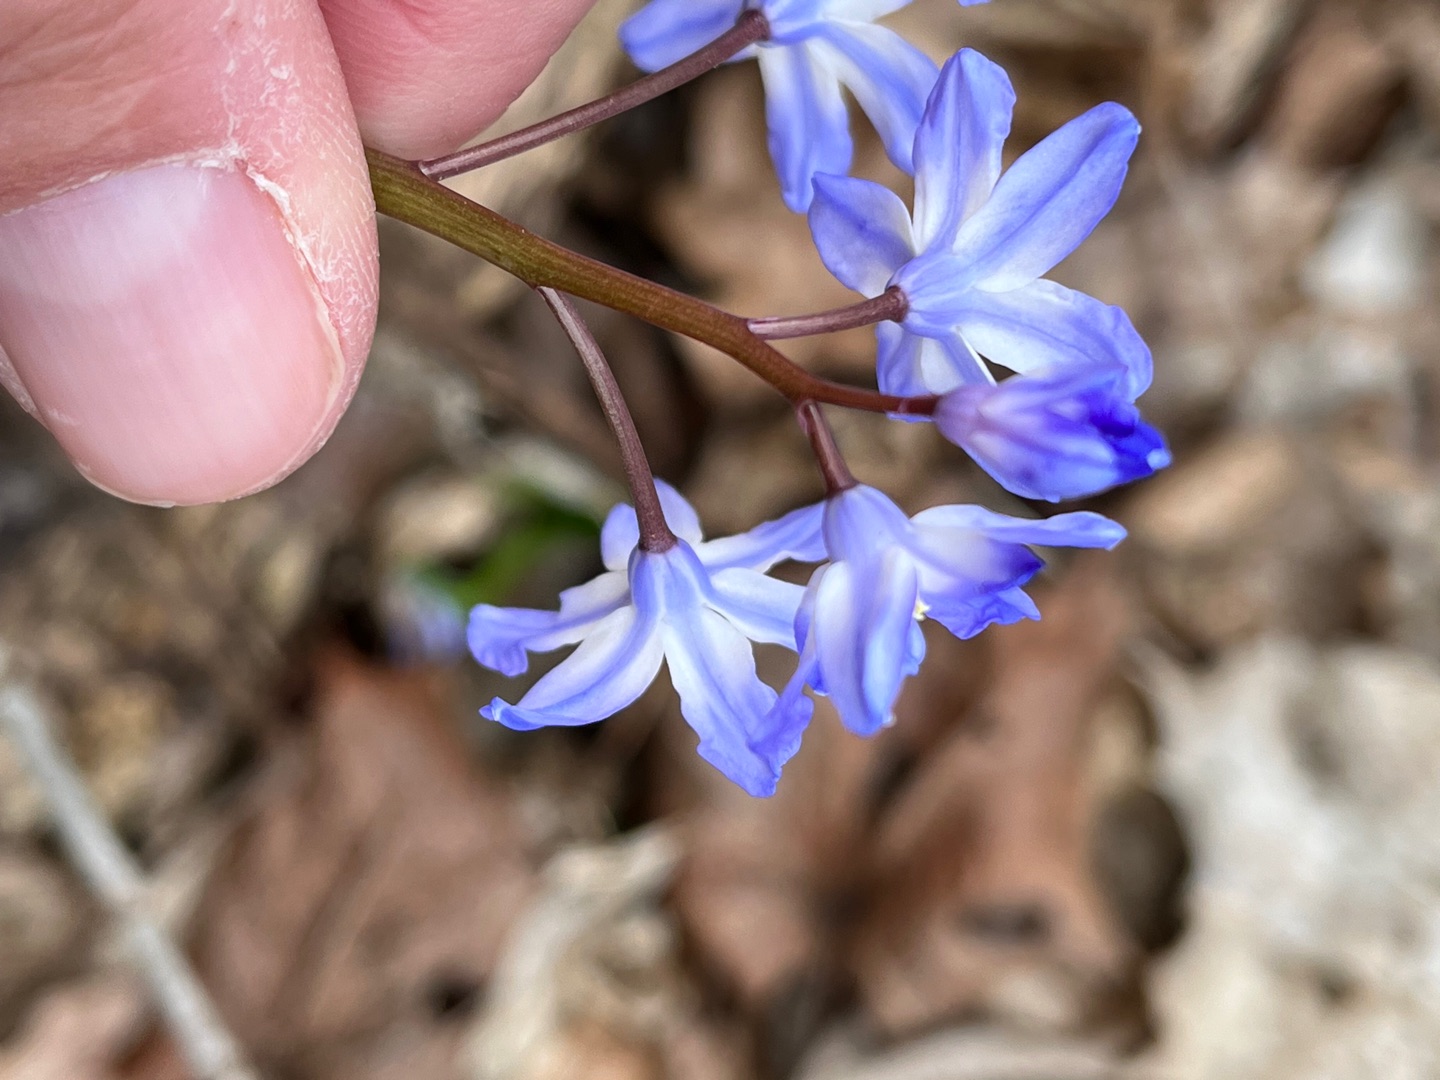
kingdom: Plantae
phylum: Tracheophyta
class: Liliopsida
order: Asparagales
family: Asparagaceae
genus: Scilla
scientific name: Scilla forbesii
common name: Almindelig snepryd
